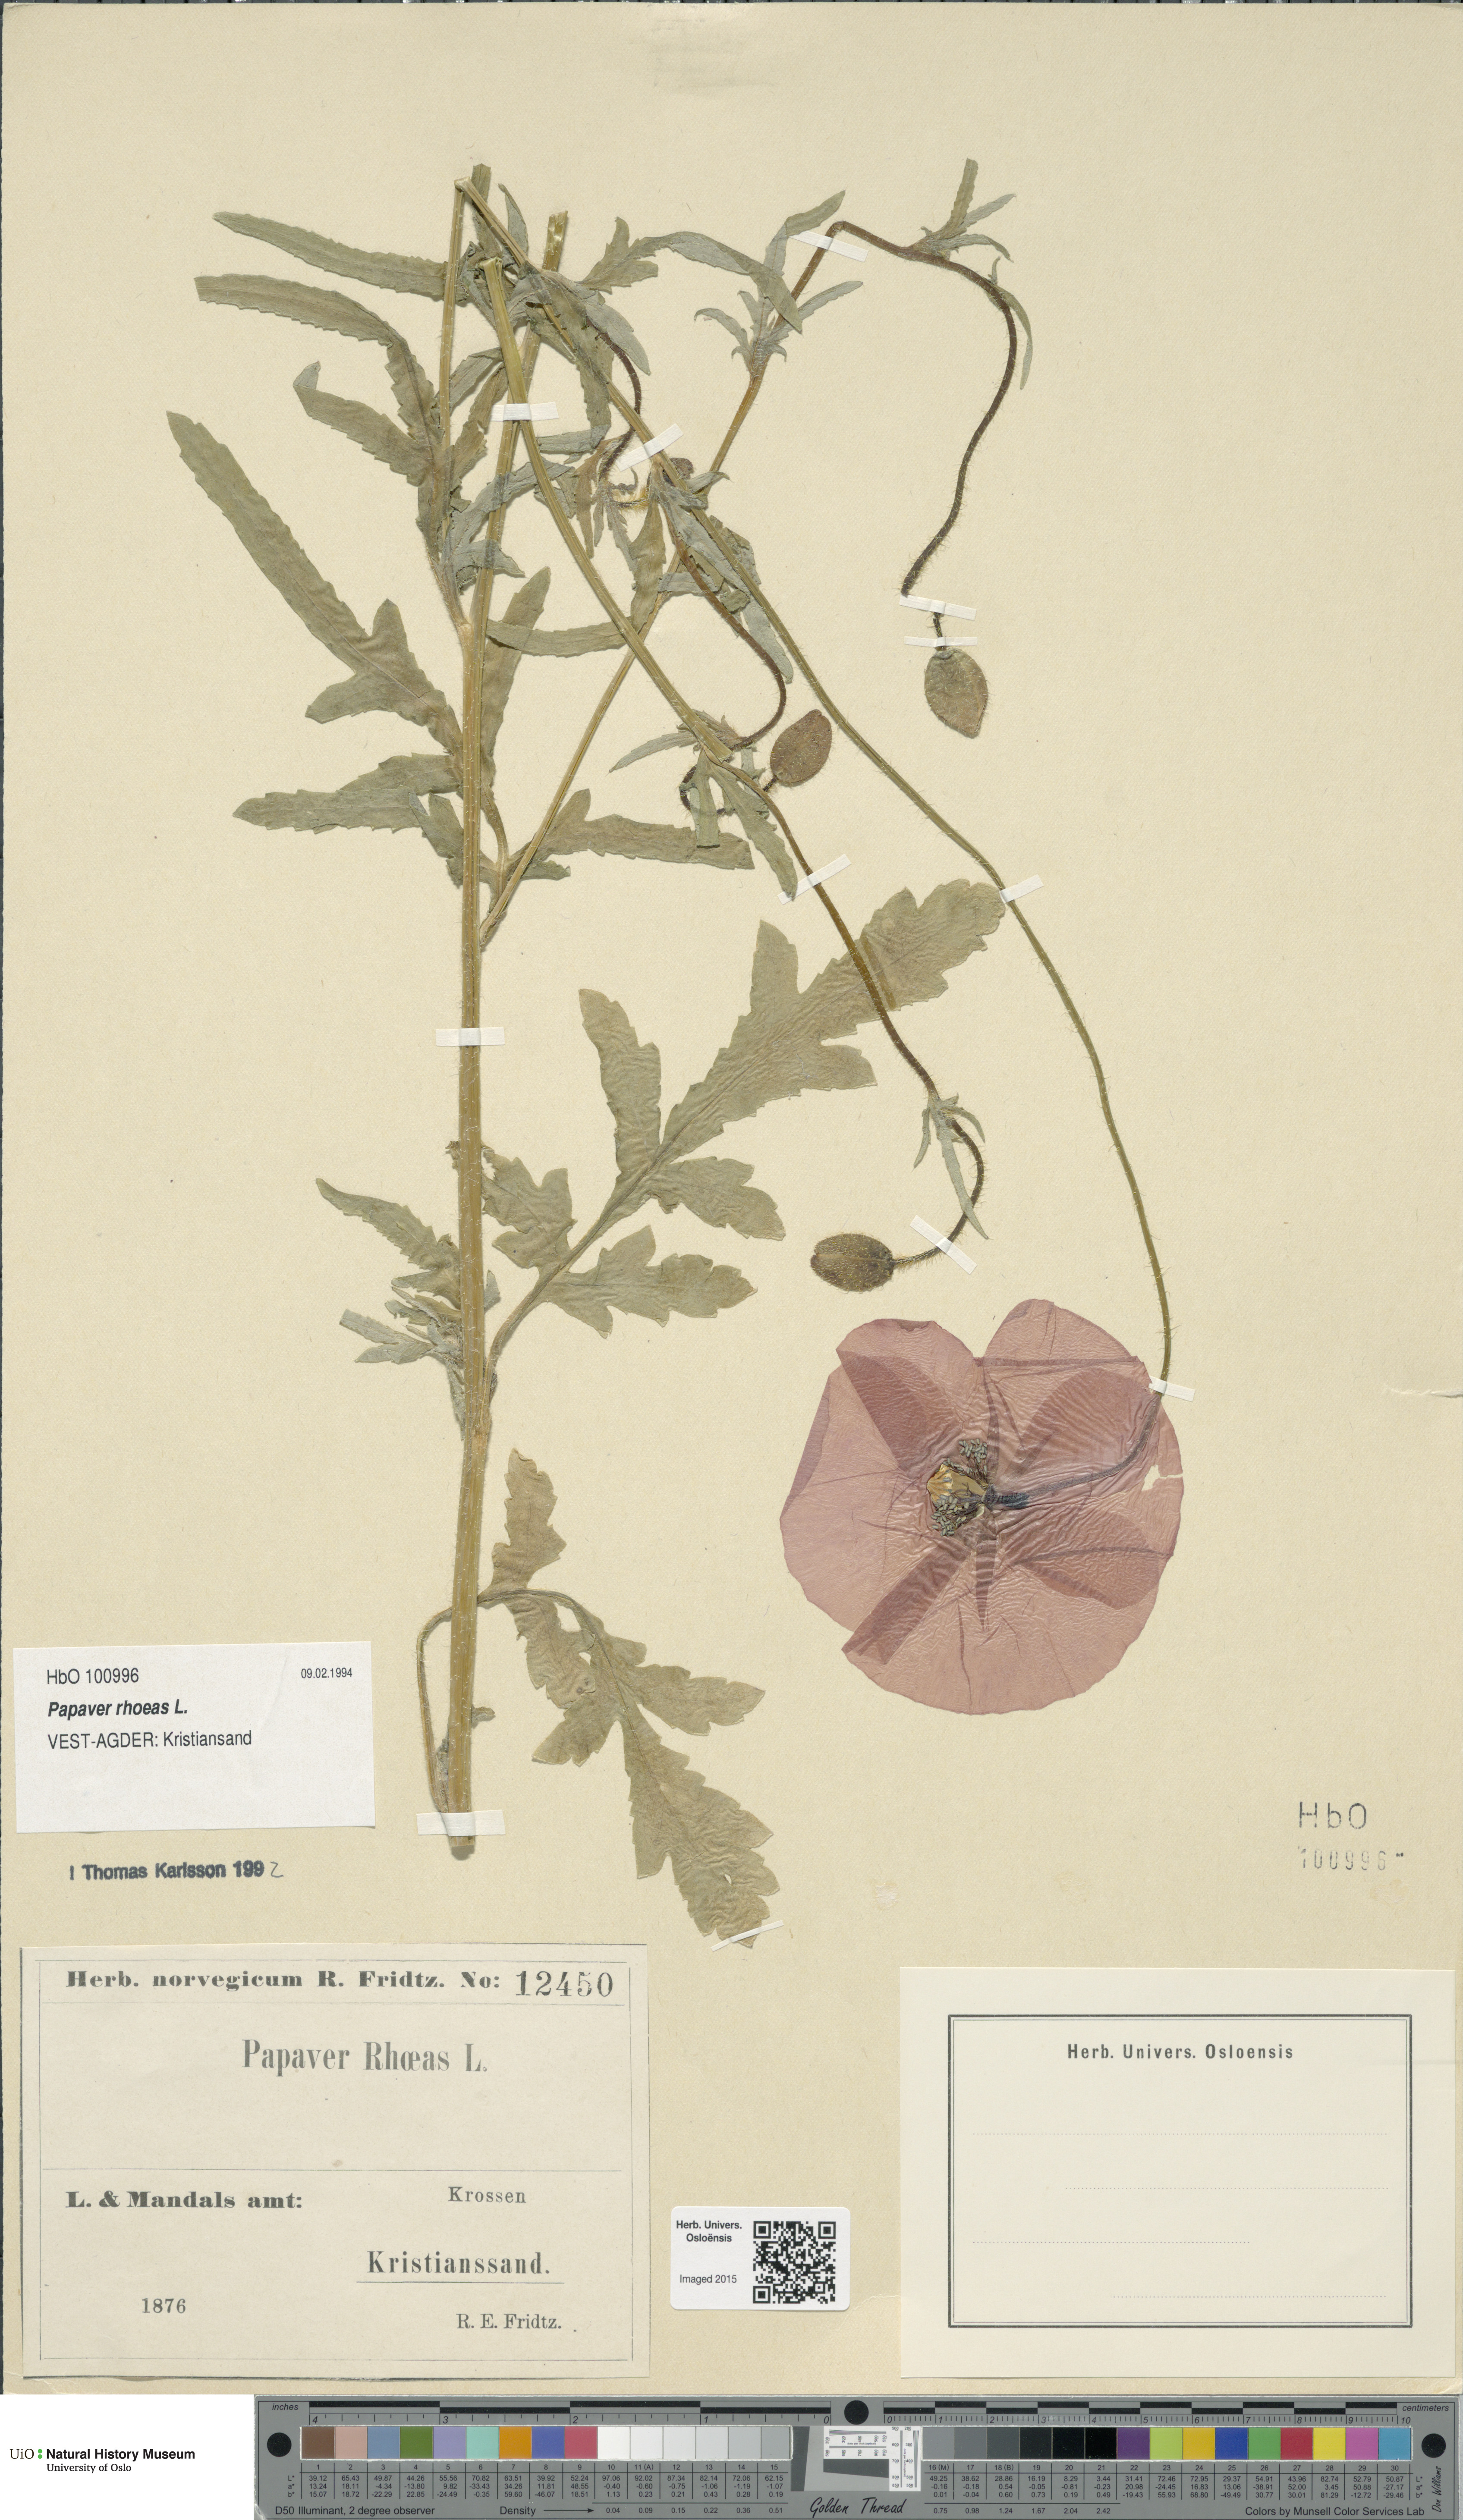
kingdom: Plantae
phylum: Tracheophyta
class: Magnoliopsida
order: Ranunculales
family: Papaveraceae
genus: Papaver
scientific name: Papaver rhoeas
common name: Corn poppy
